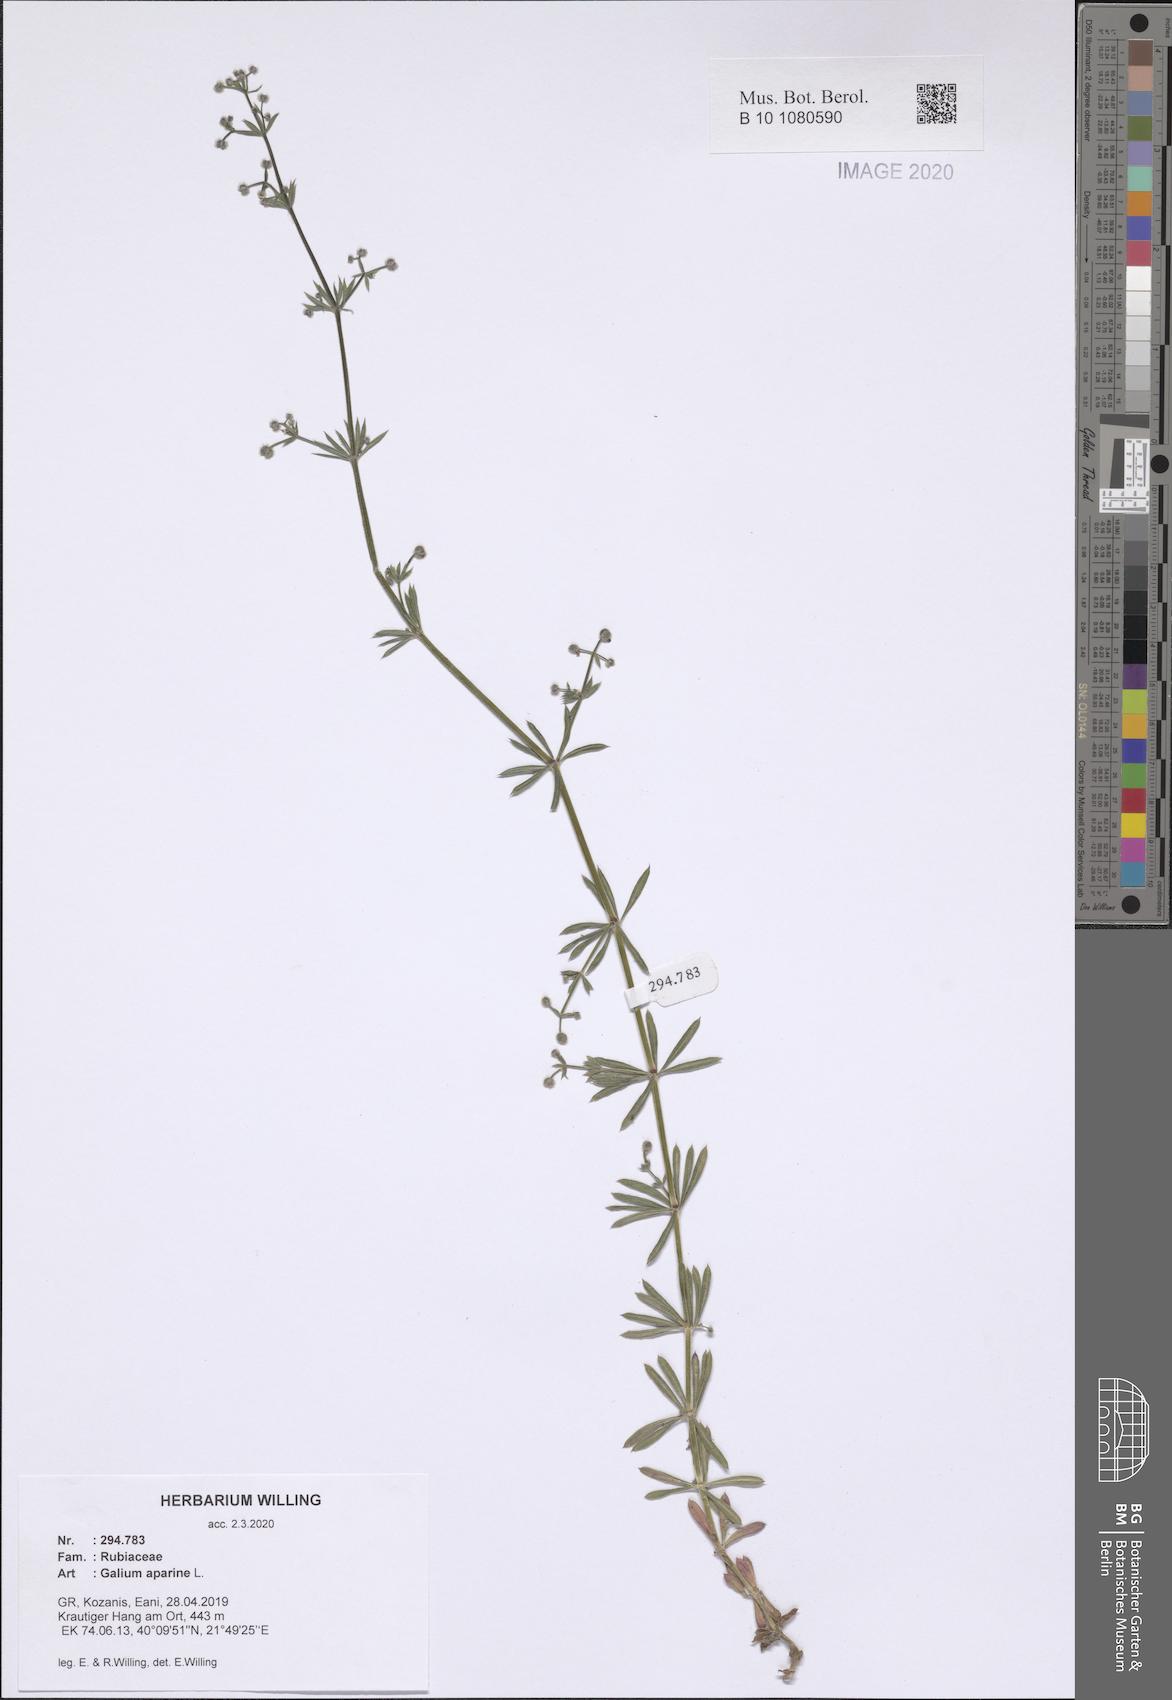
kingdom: Plantae
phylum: Tracheophyta
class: Magnoliopsida
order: Gentianales
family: Rubiaceae
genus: Galium
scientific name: Galium aparine
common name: Cleavers
